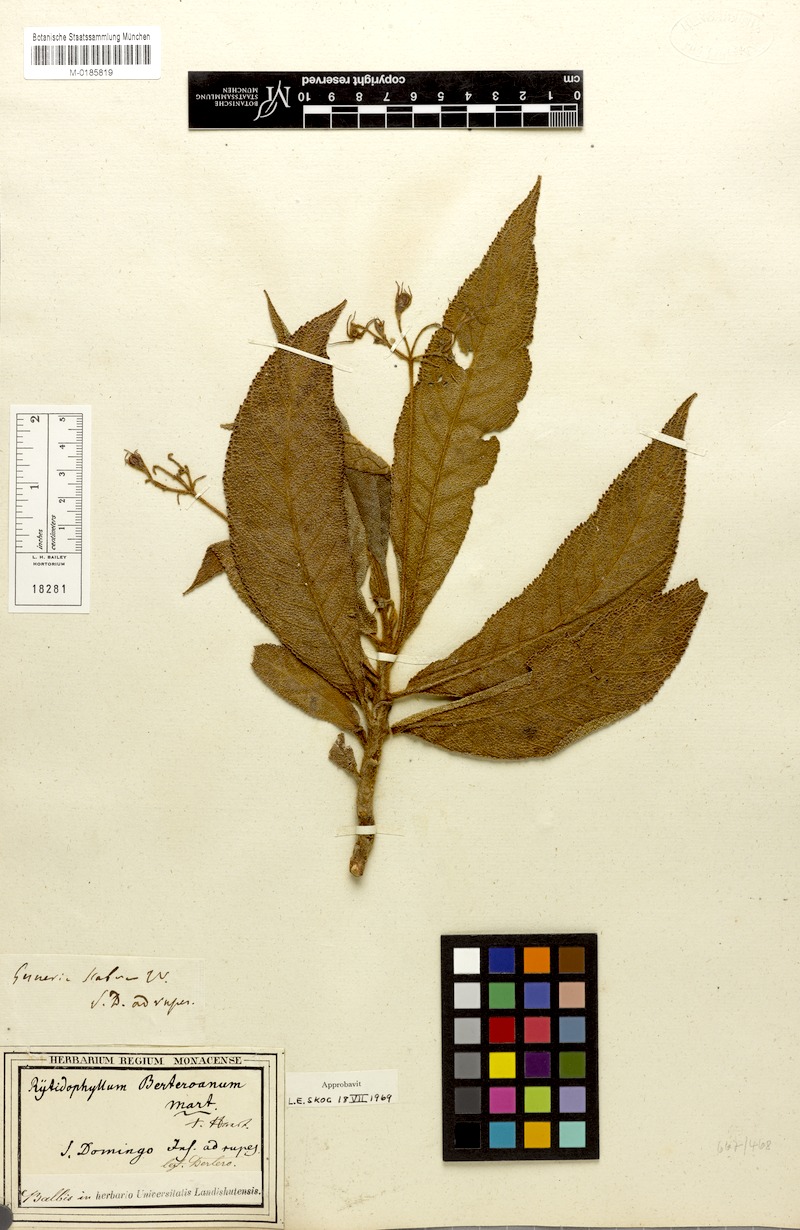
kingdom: Plantae
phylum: Tracheophyta
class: Magnoliopsida
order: Lamiales
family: Gesneriaceae
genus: Rhytidophyllum
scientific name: Rhytidophyllum berteroanum
